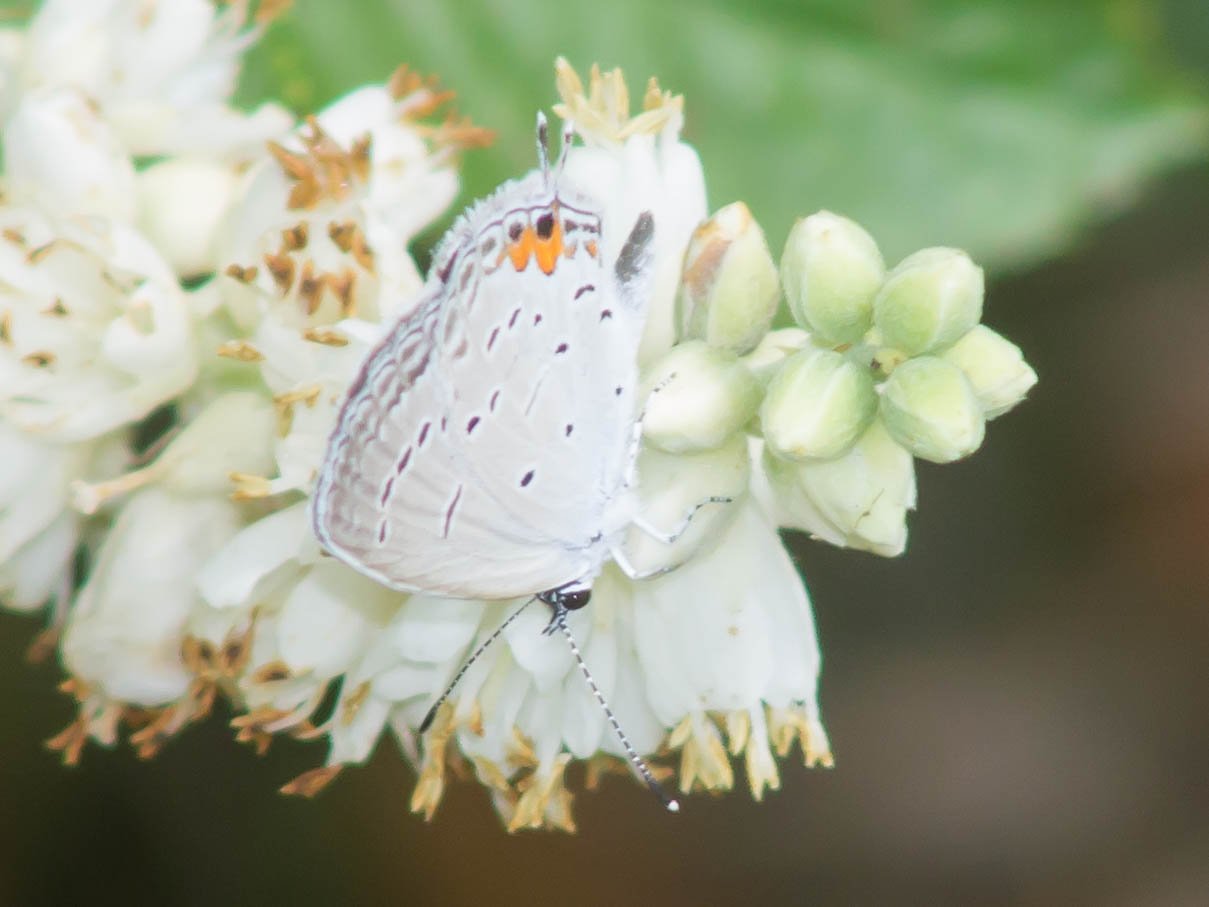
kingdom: Animalia
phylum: Arthropoda
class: Insecta
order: Lepidoptera
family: Lycaenidae
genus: Elkalyce
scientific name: Elkalyce comyntas
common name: Eastern Tailed-Blue
